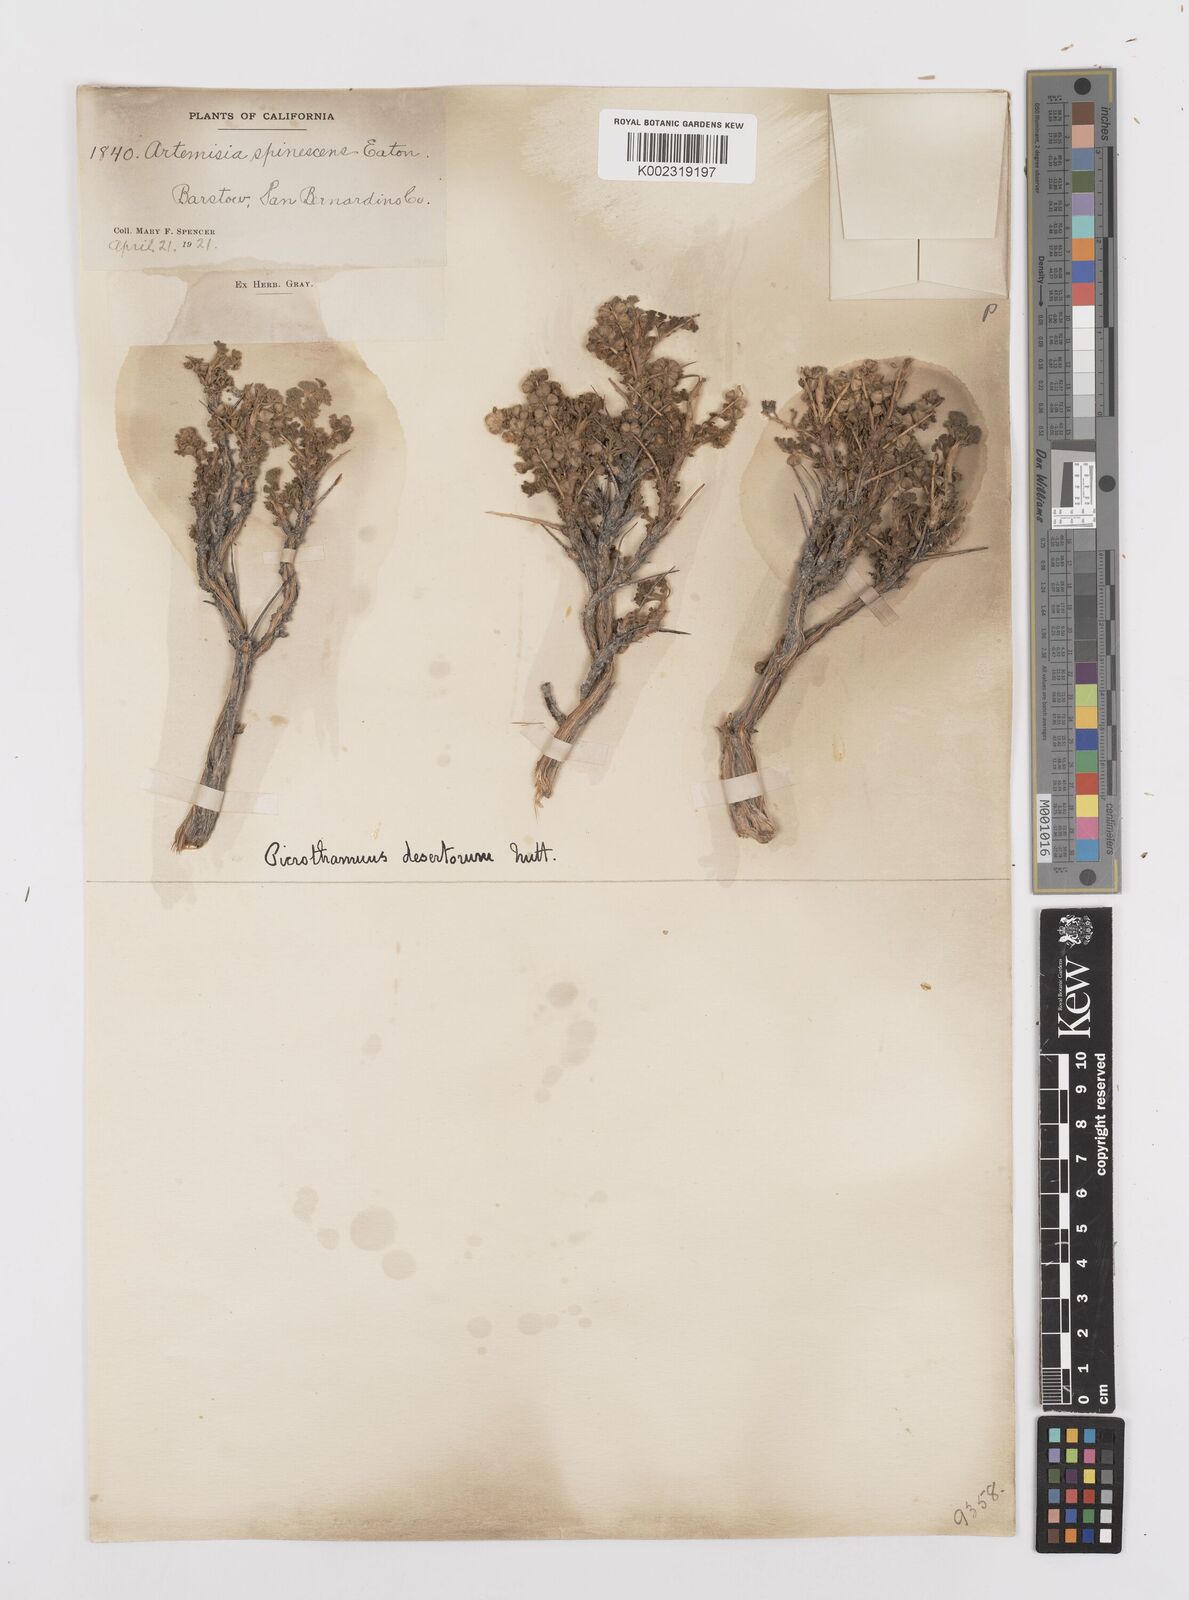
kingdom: Plantae
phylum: Tracheophyta
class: Magnoliopsida
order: Asterales
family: Asteraceae
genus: Artemisia
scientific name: Artemisia spinescens
